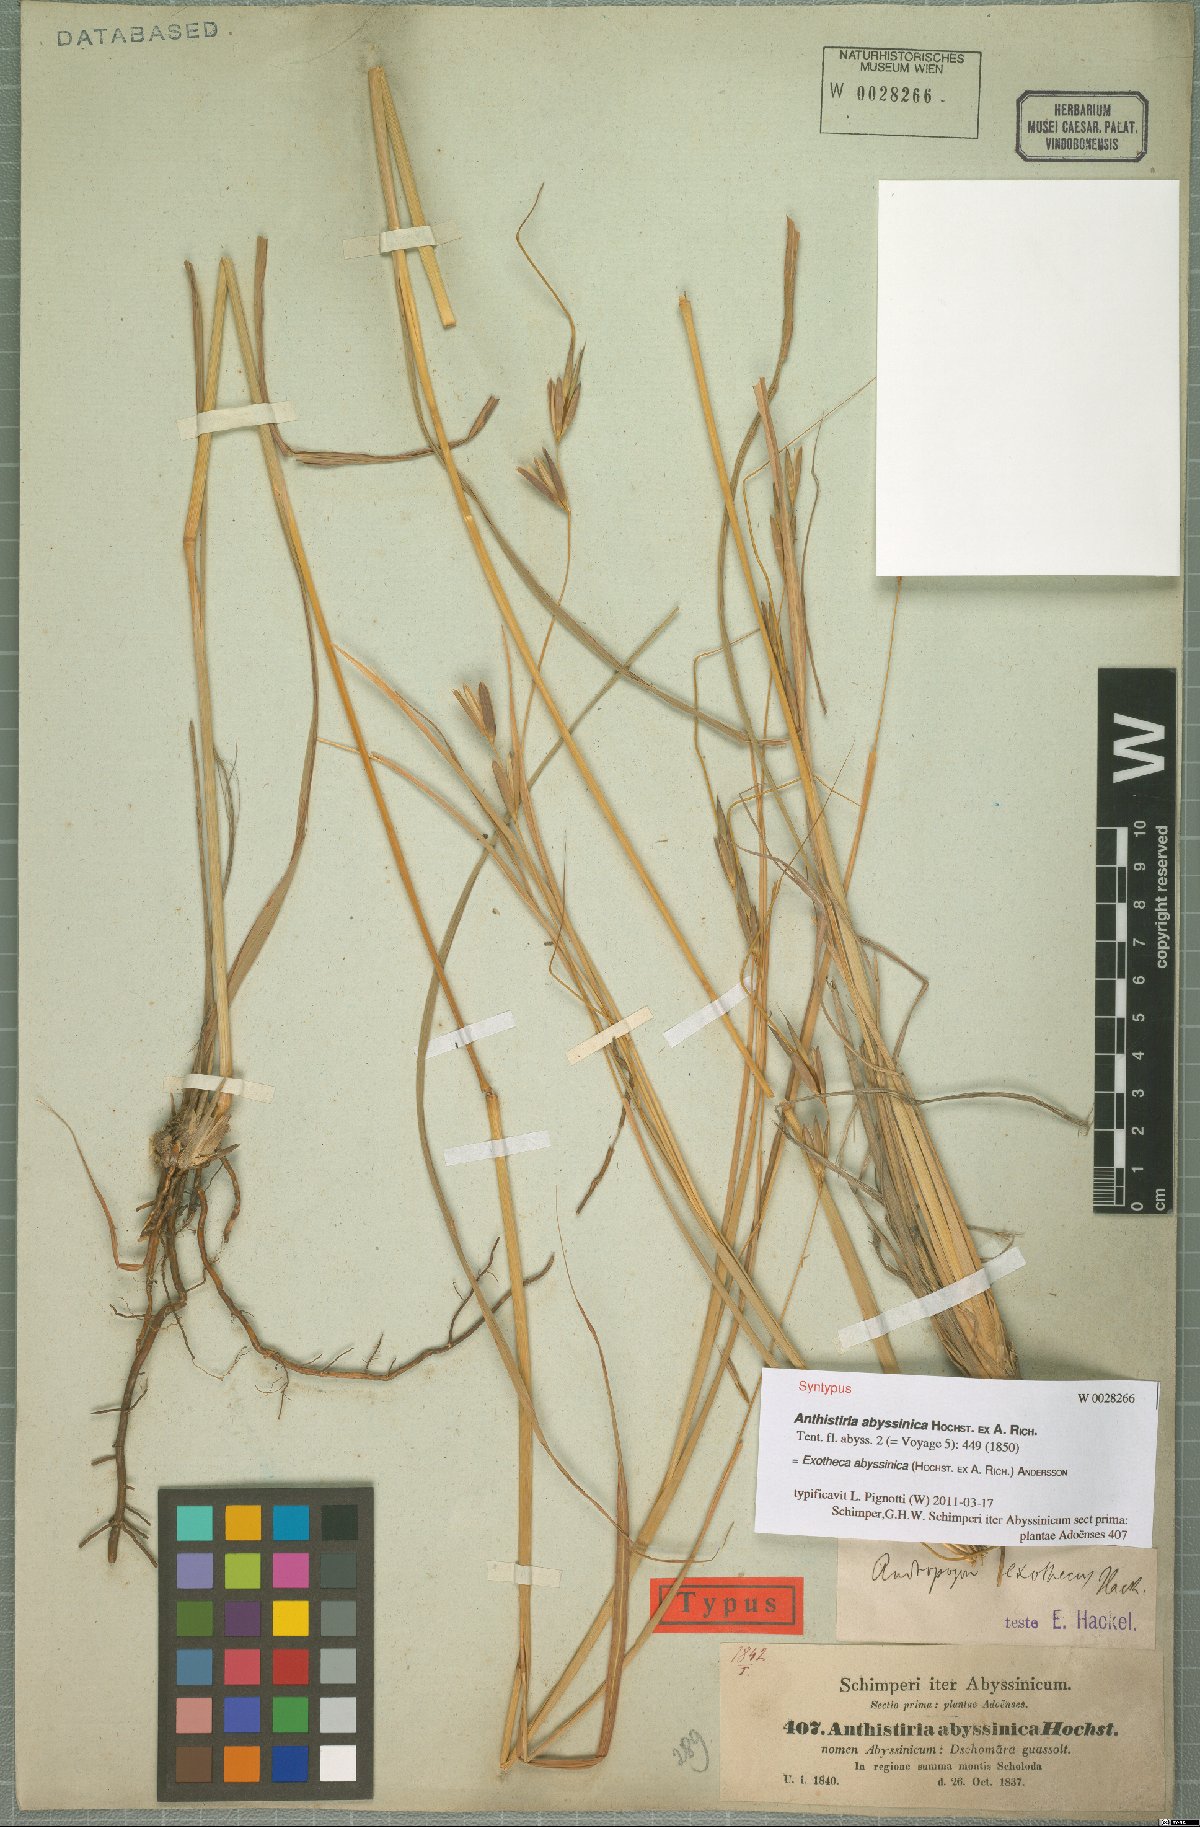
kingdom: Plantae
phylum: Tracheophyta
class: Liliopsida
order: Poales
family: Poaceae
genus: Exotheca
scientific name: Exotheca abyssinica
